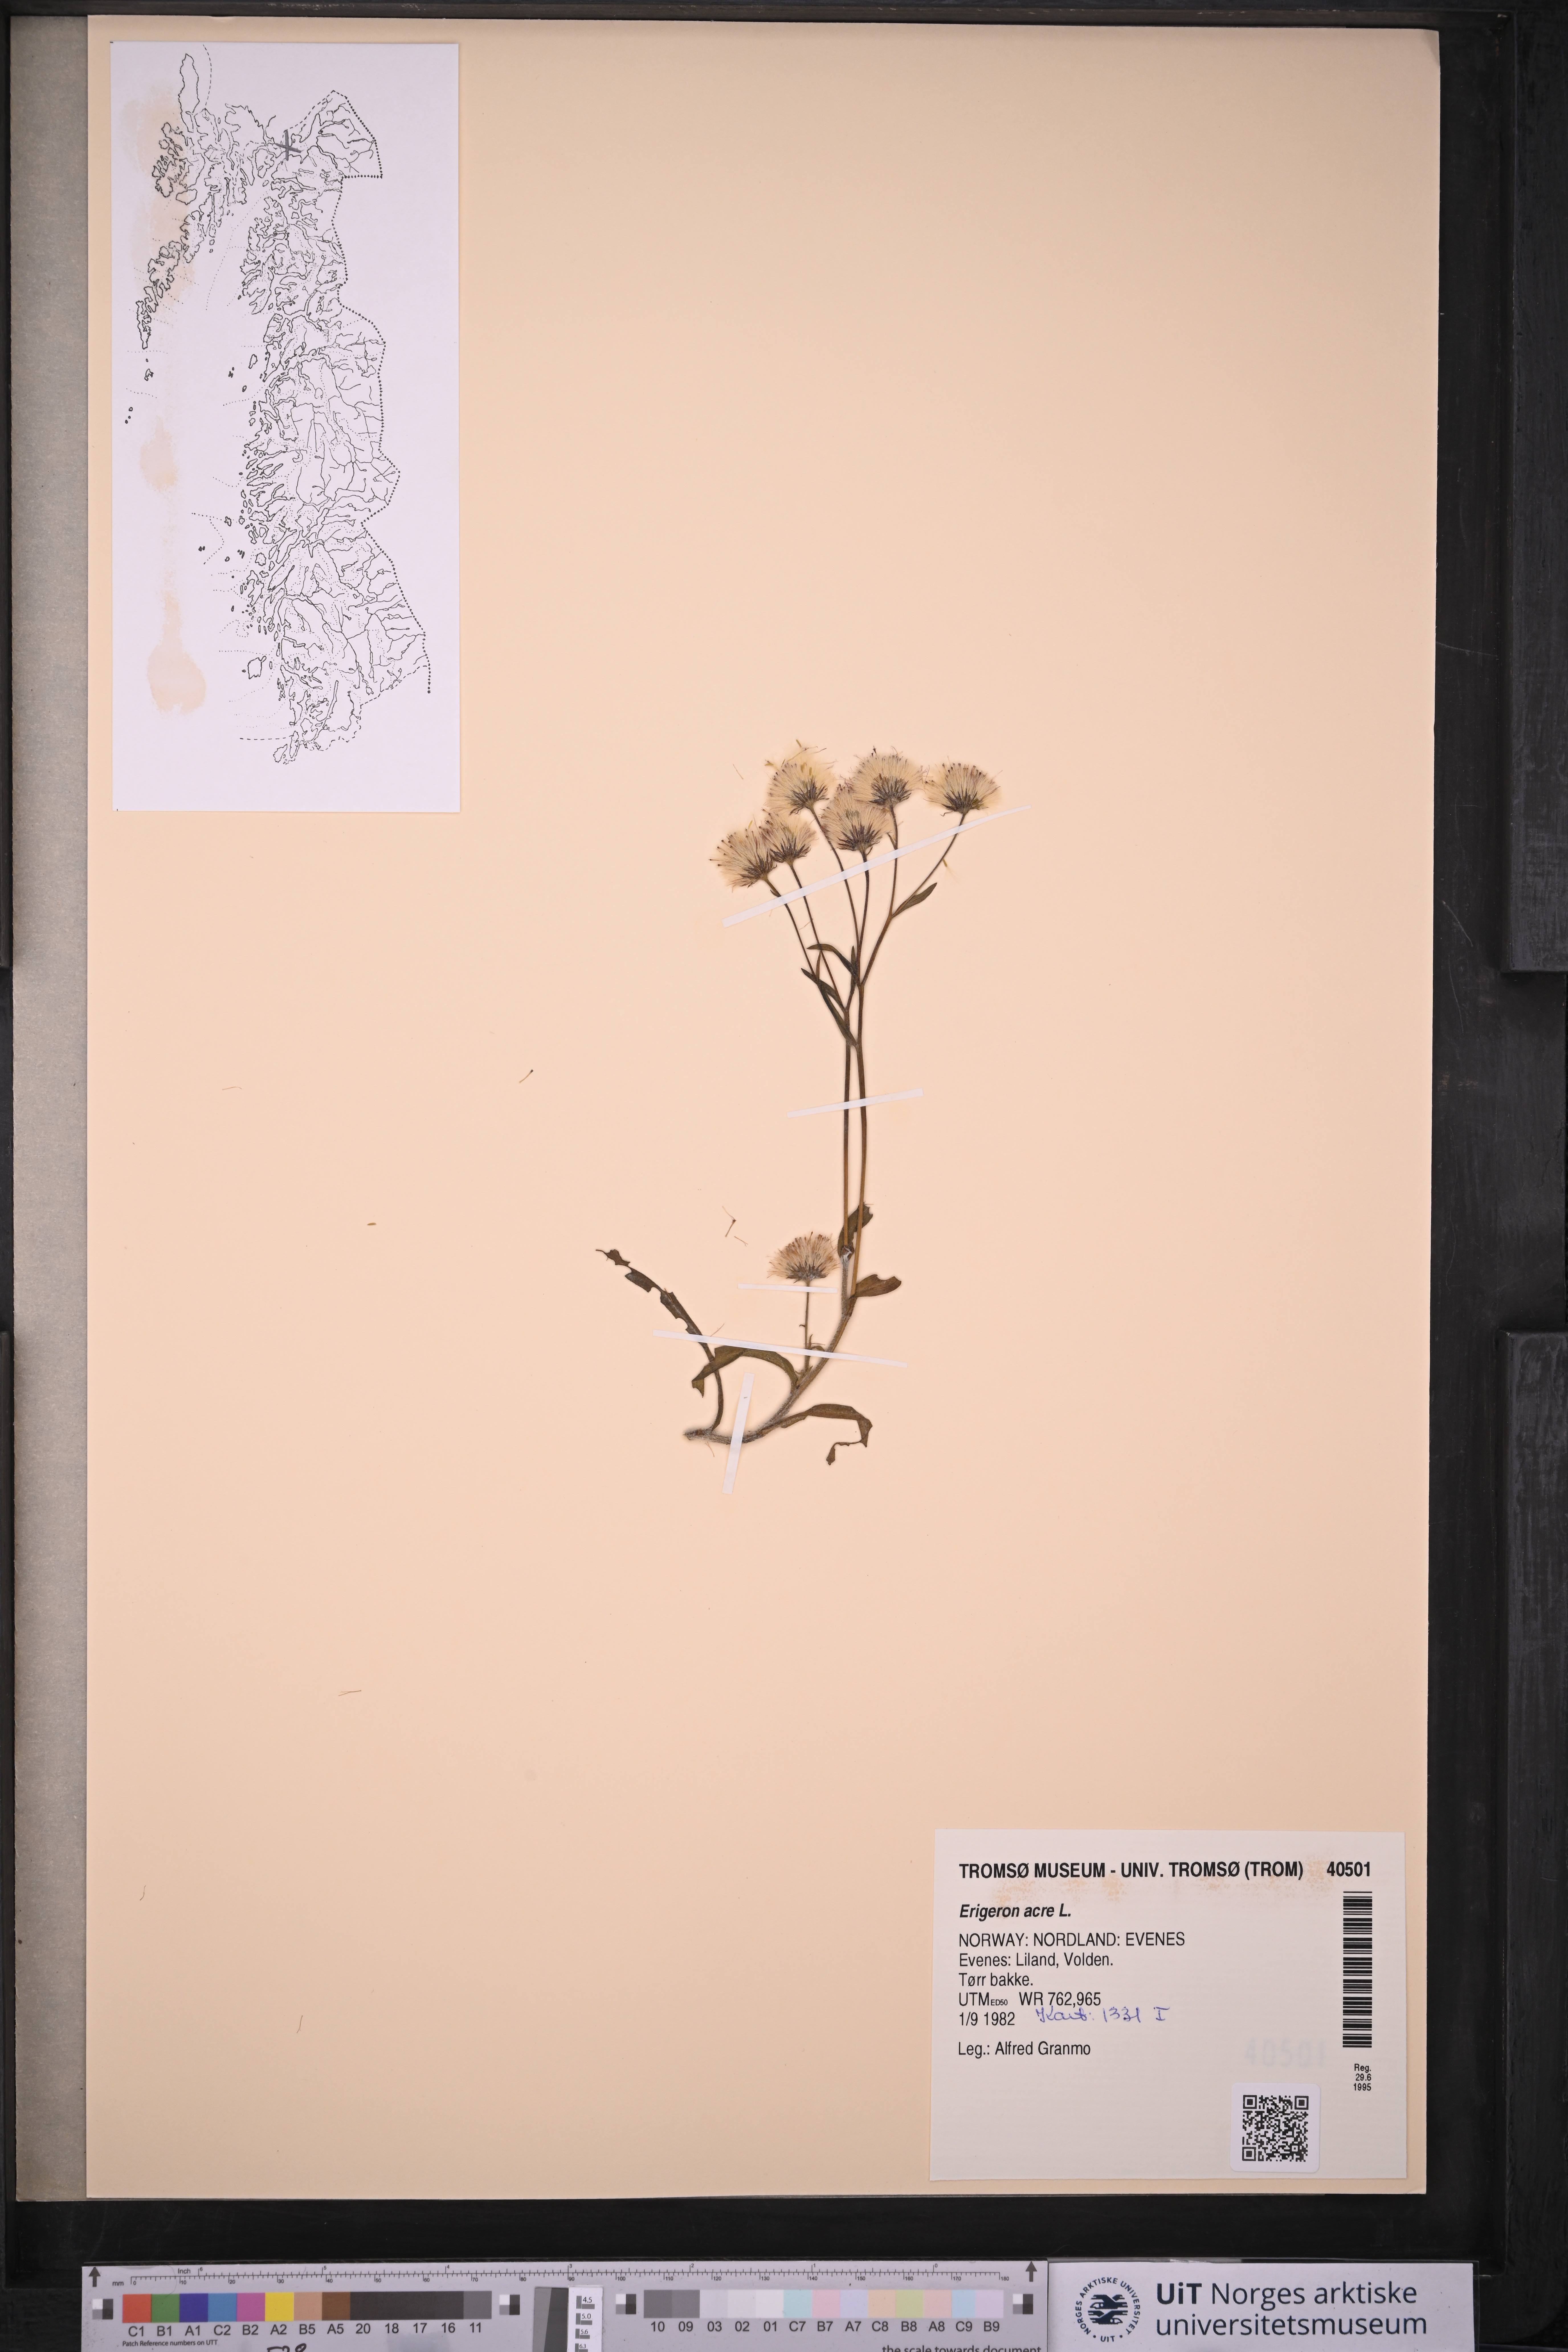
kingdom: Plantae
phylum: Tracheophyta
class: Magnoliopsida
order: Asterales
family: Asteraceae
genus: Erigeron
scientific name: Erigeron acris
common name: Blue fleabane
